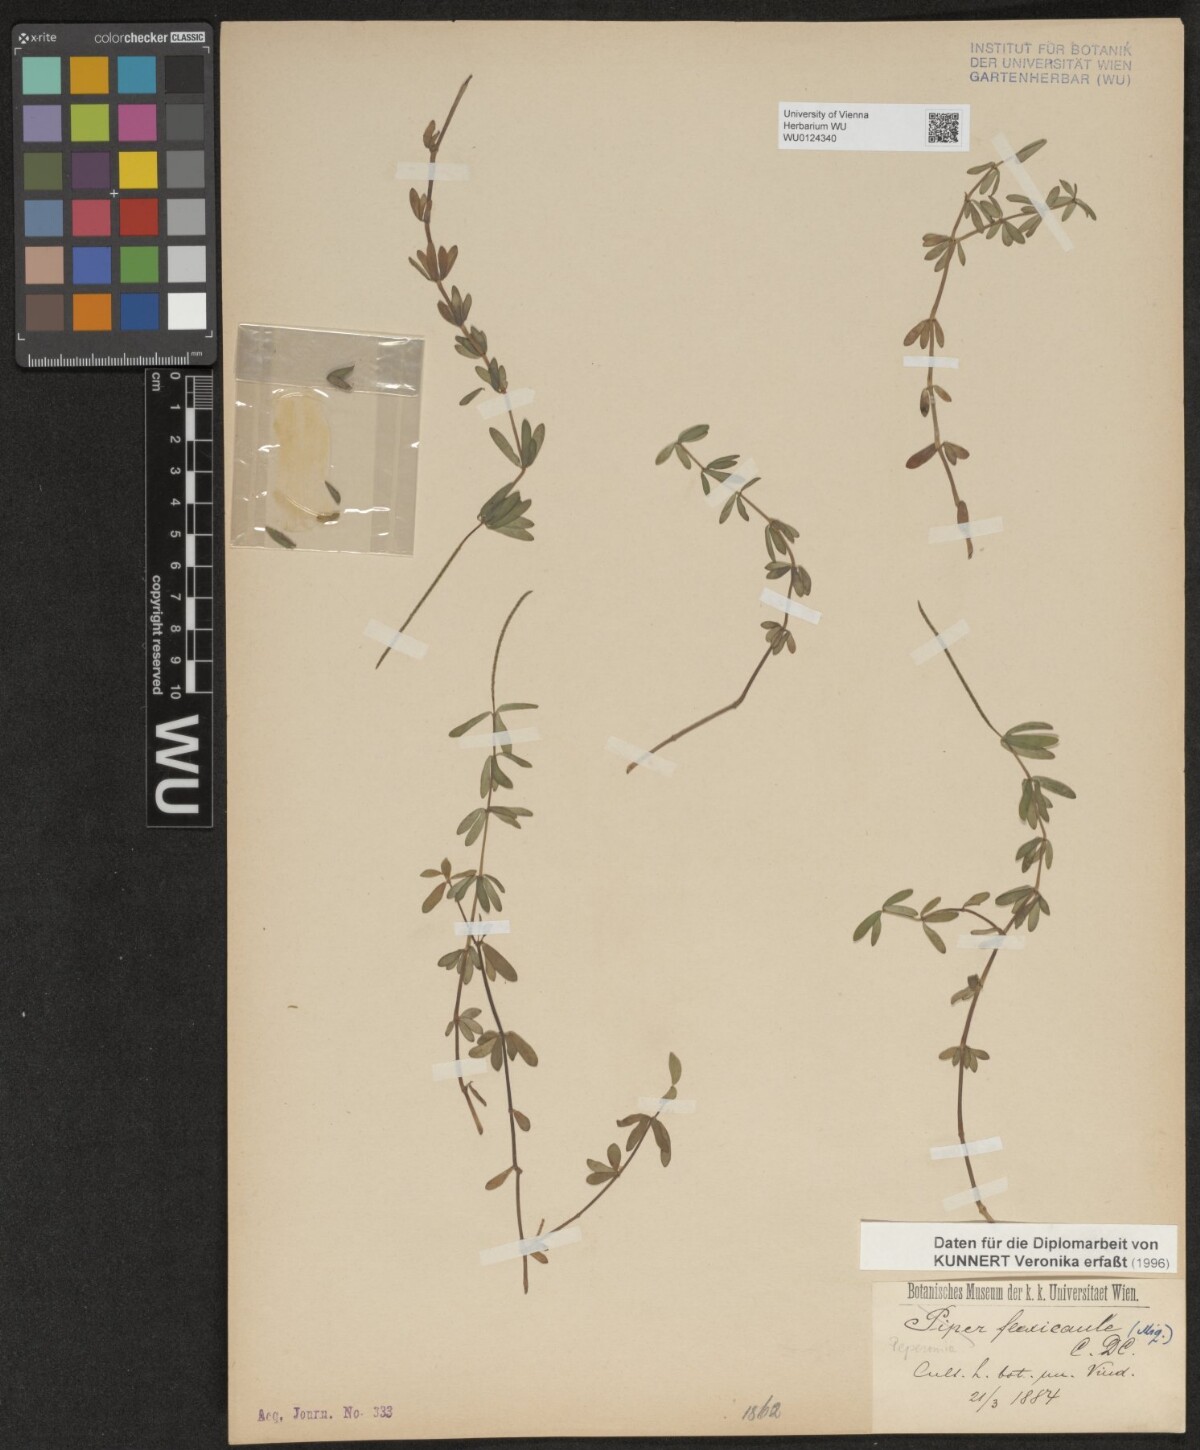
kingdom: Plantae
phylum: Tracheophyta
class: Magnoliopsida
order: Piperales
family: Piperaceae
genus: Peperomia
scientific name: Peperomia flexicaulis
